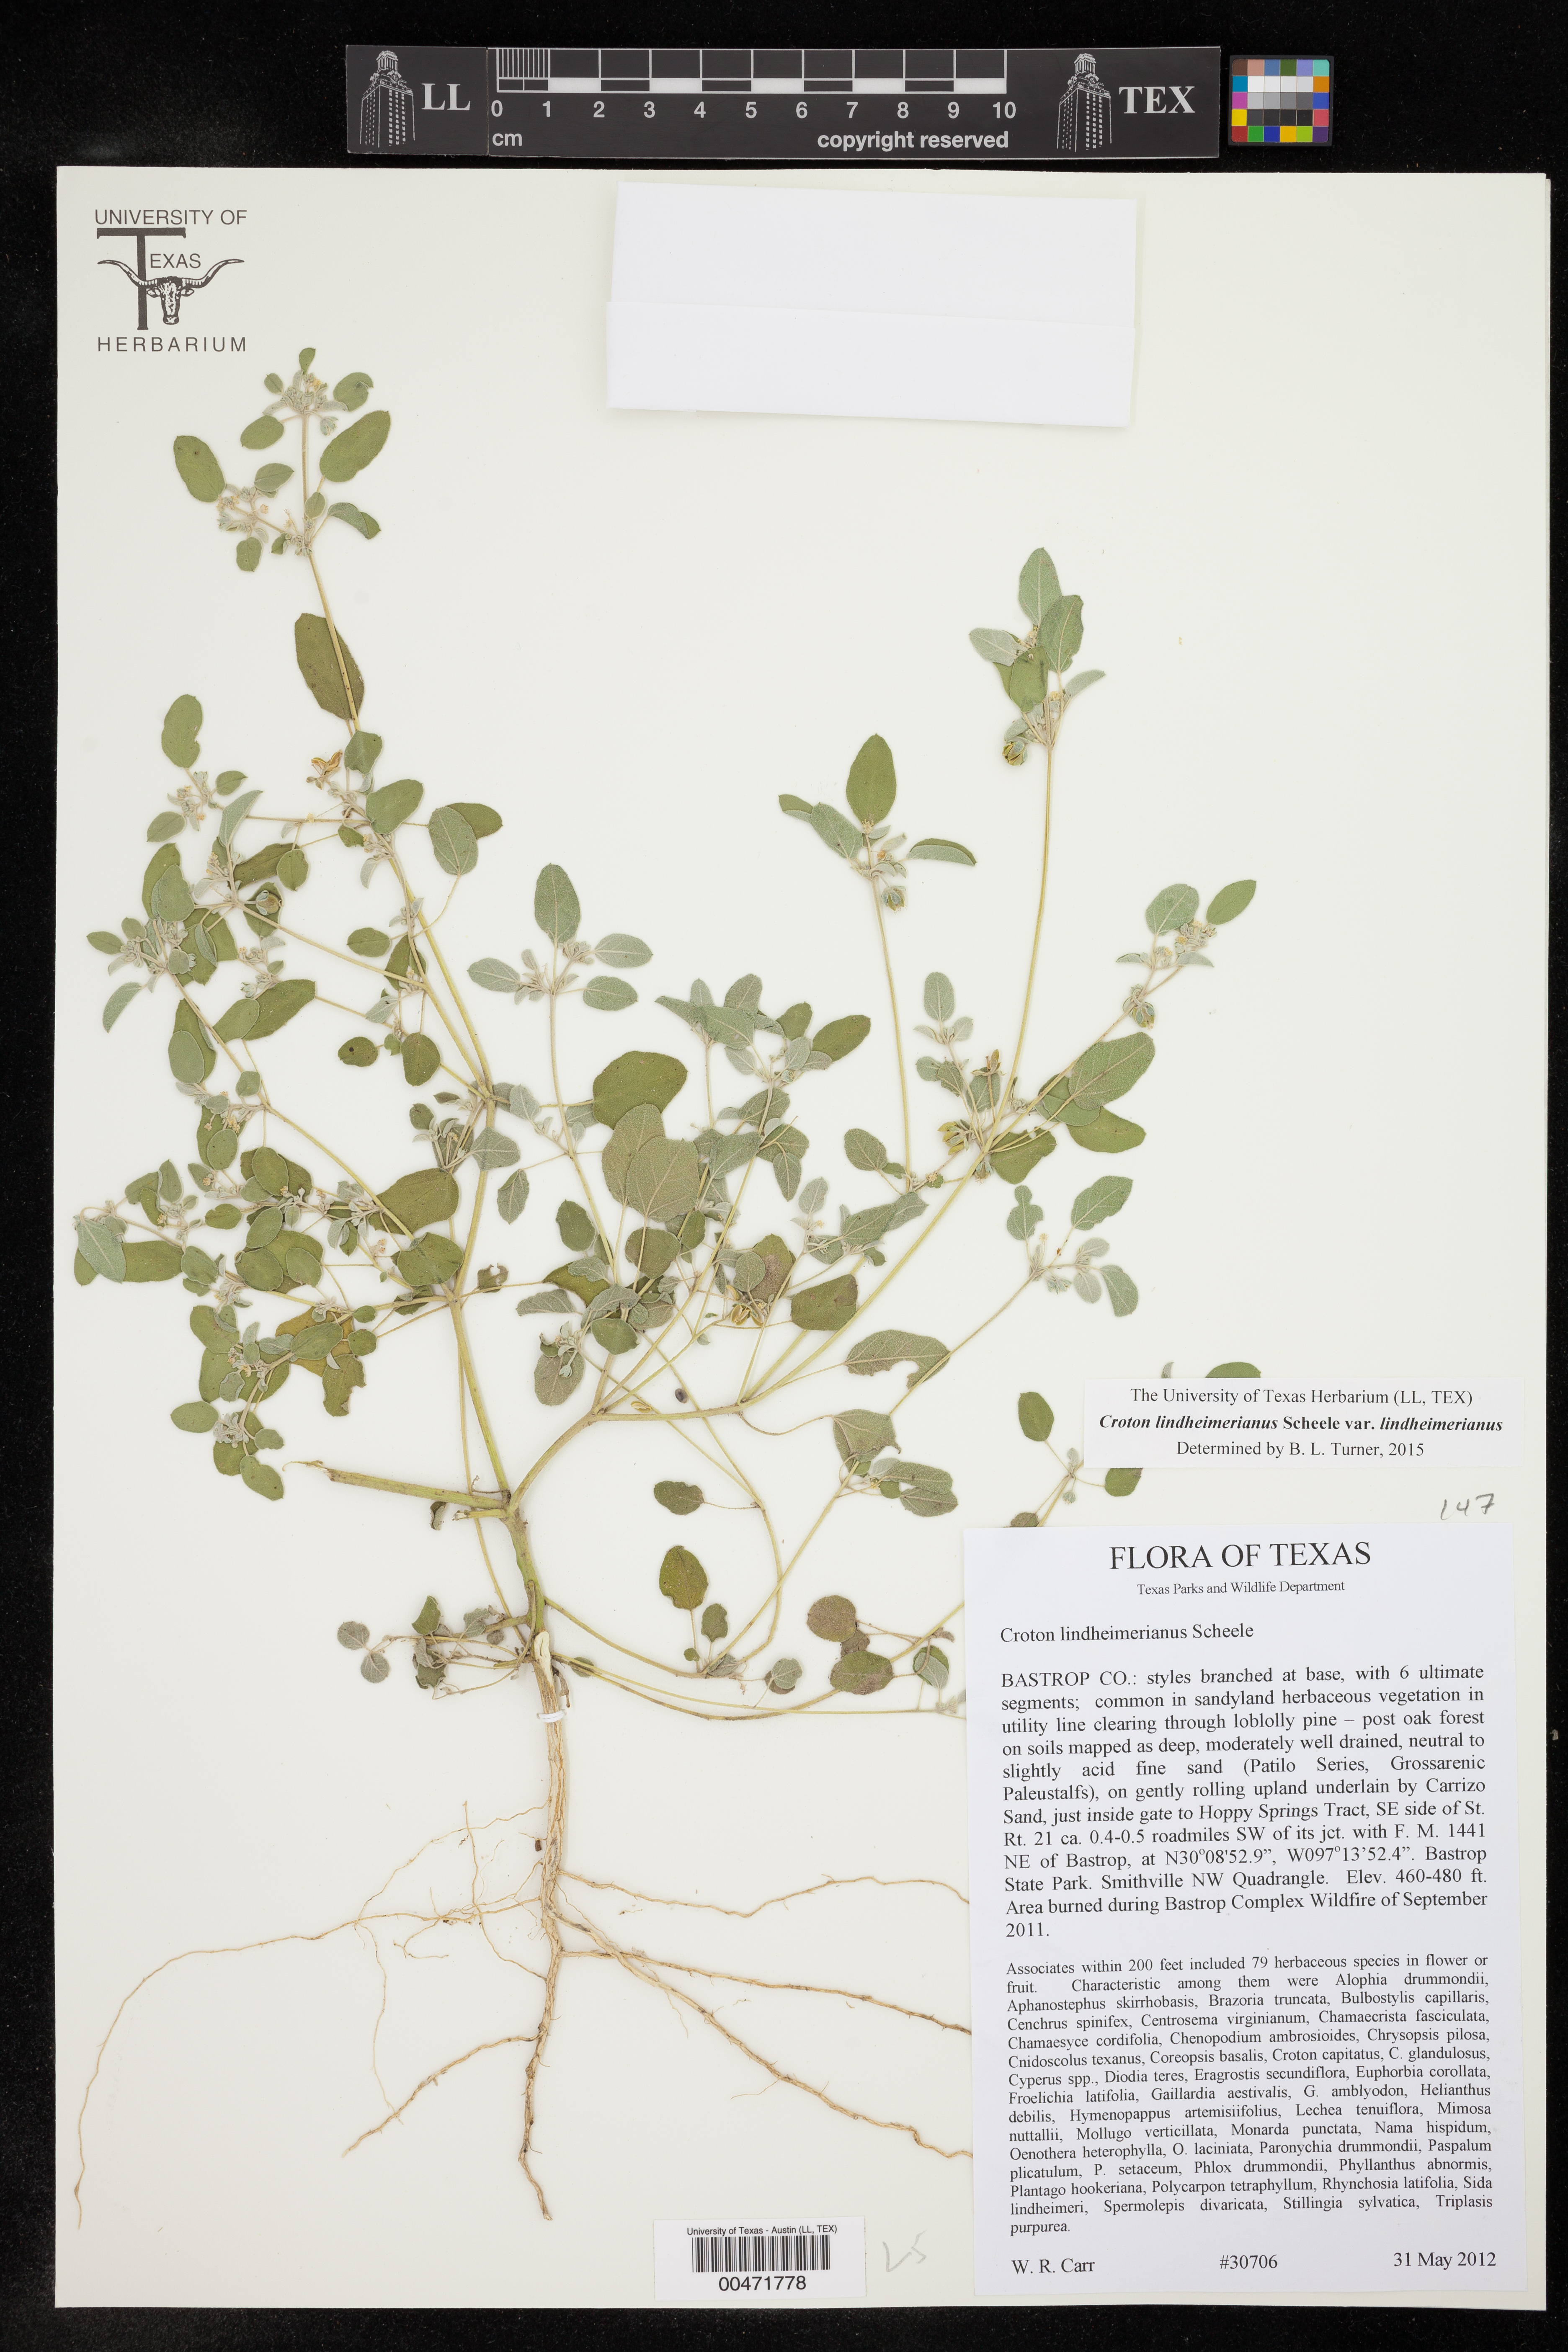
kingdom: Plantae
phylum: Tracheophyta
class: Magnoliopsida
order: Malpighiales
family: Euphorbiaceae
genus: Croton
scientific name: Croton lindheimerianus
